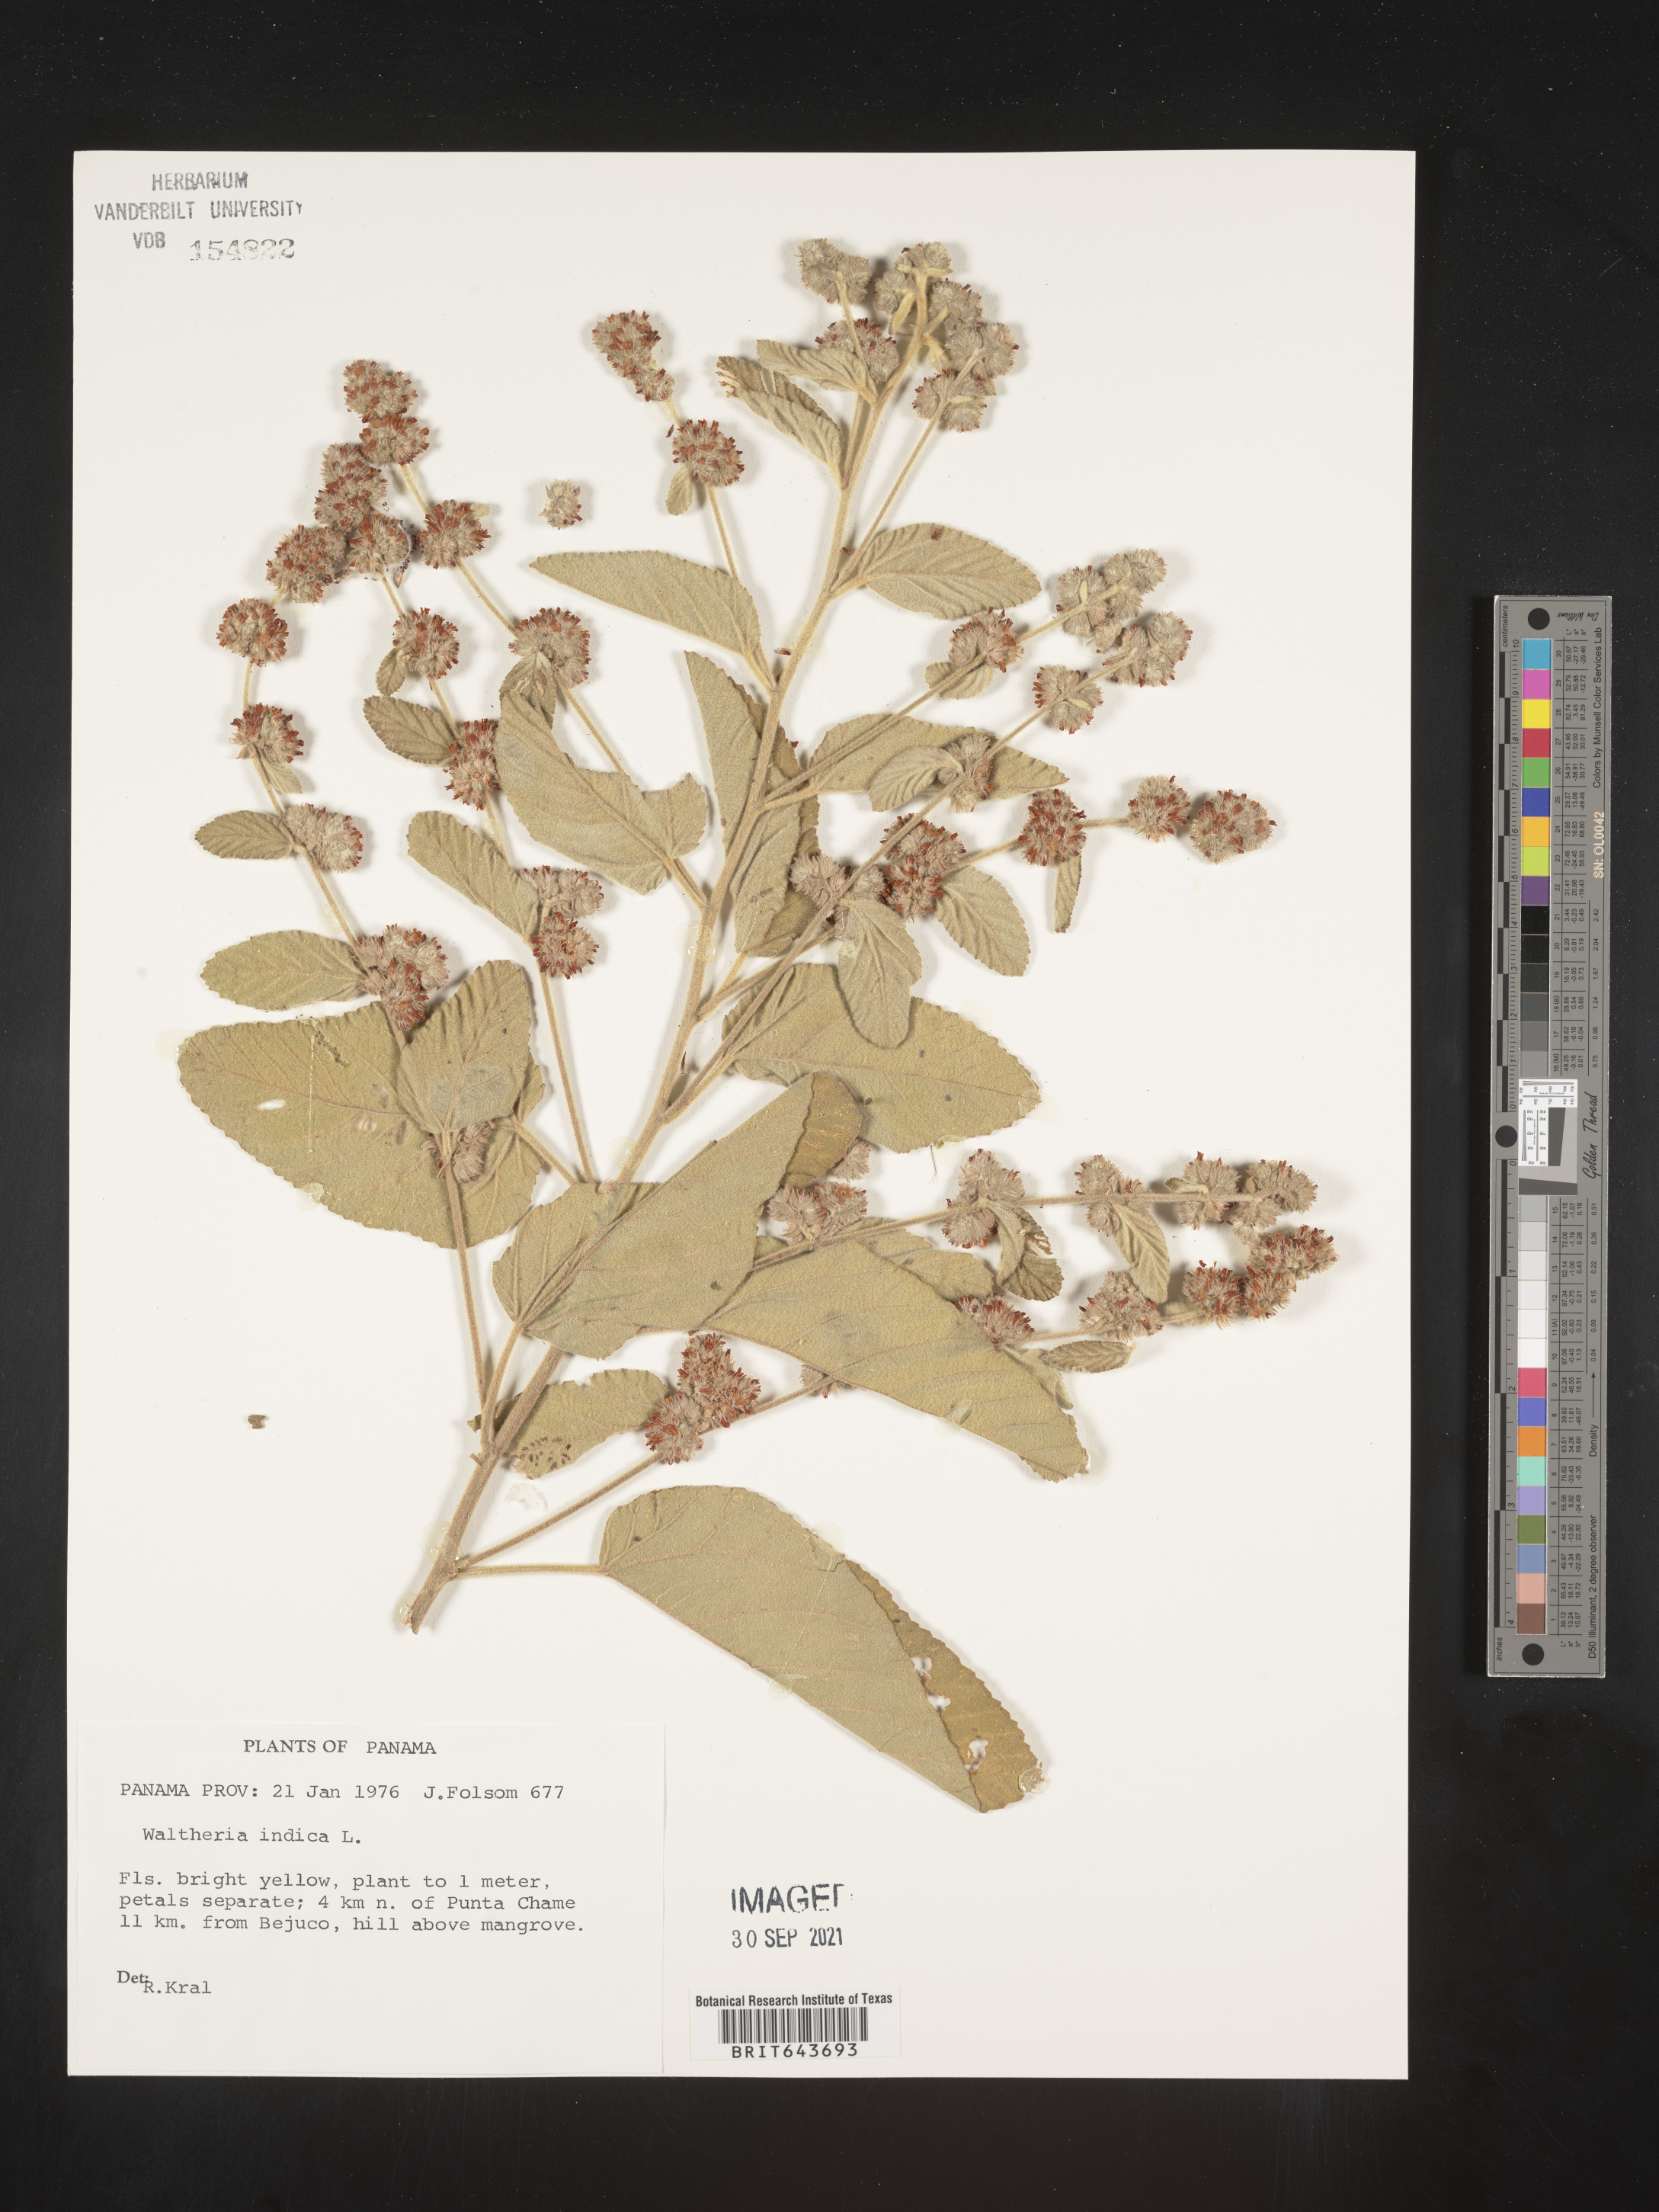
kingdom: Plantae
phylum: Tracheophyta
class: Magnoliopsida
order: Malvales
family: Malvaceae
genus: Waltheria
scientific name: Waltheria
